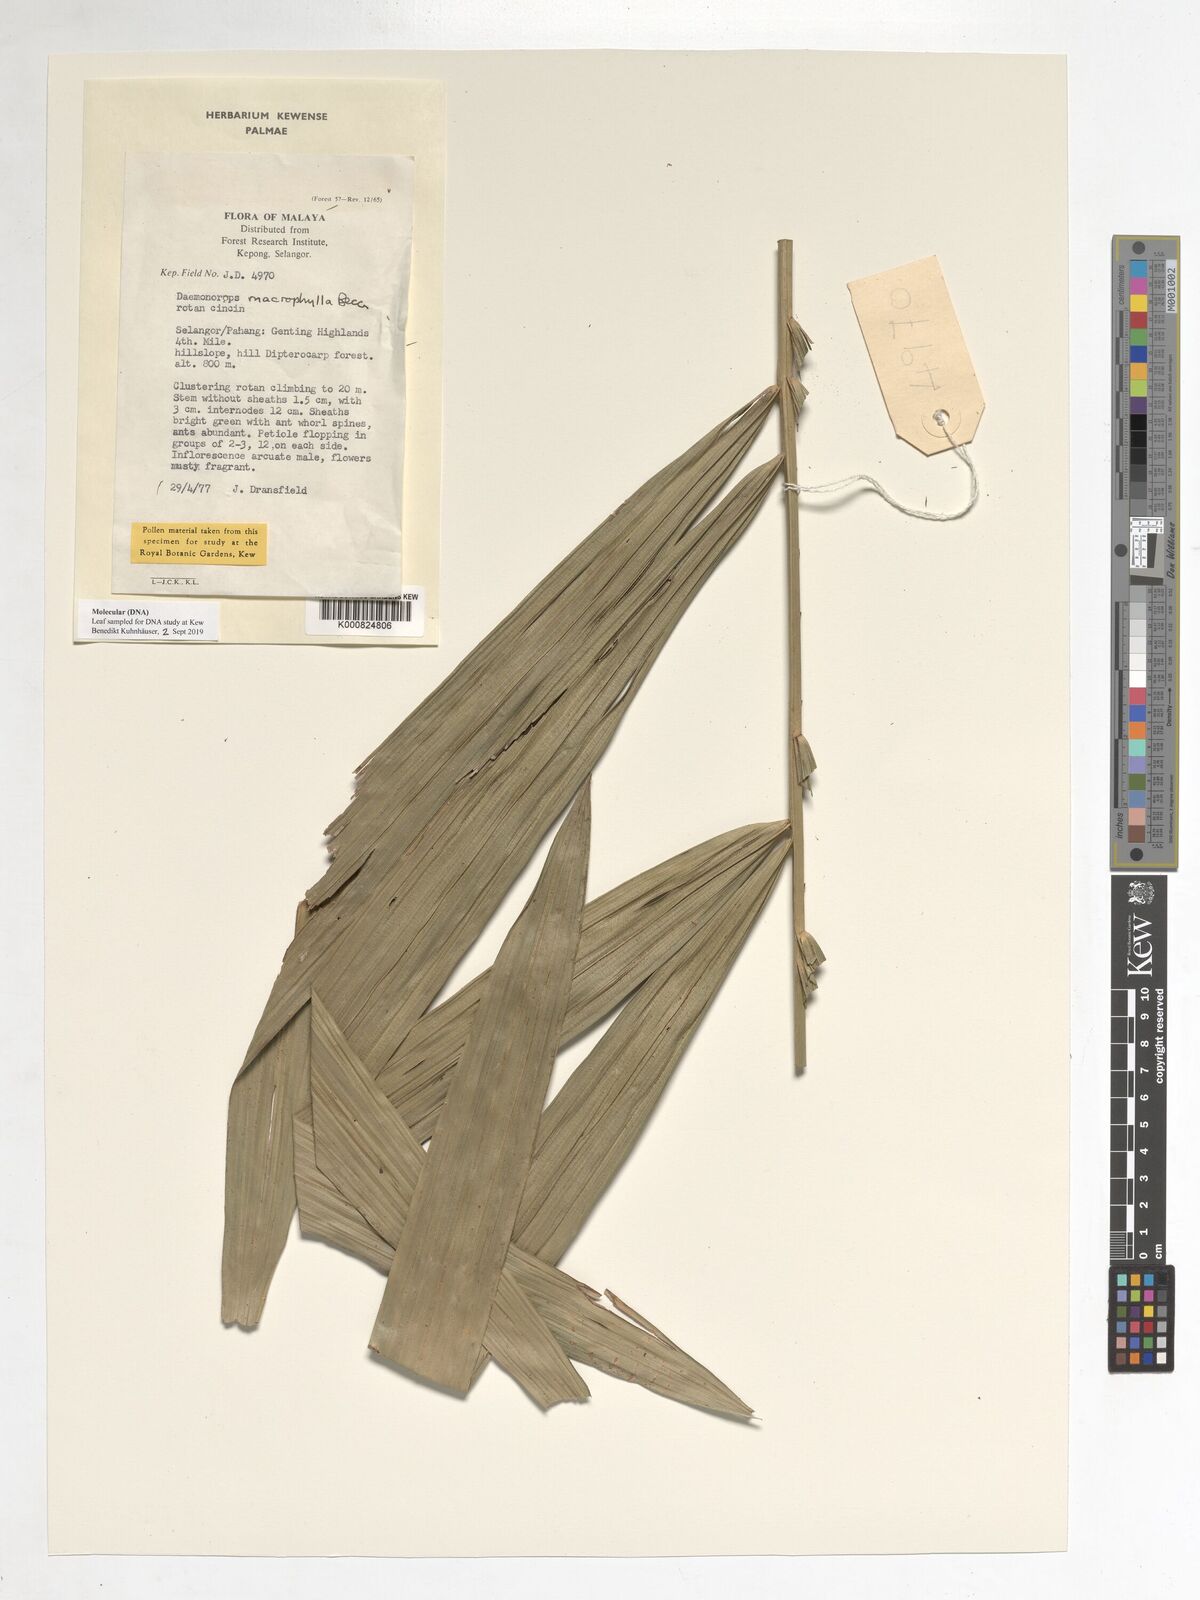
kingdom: Plantae
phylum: Tracheophyta
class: Liliopsida
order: Arecales
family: Arecaceae
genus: Calamus
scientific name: Calamus crinitus
